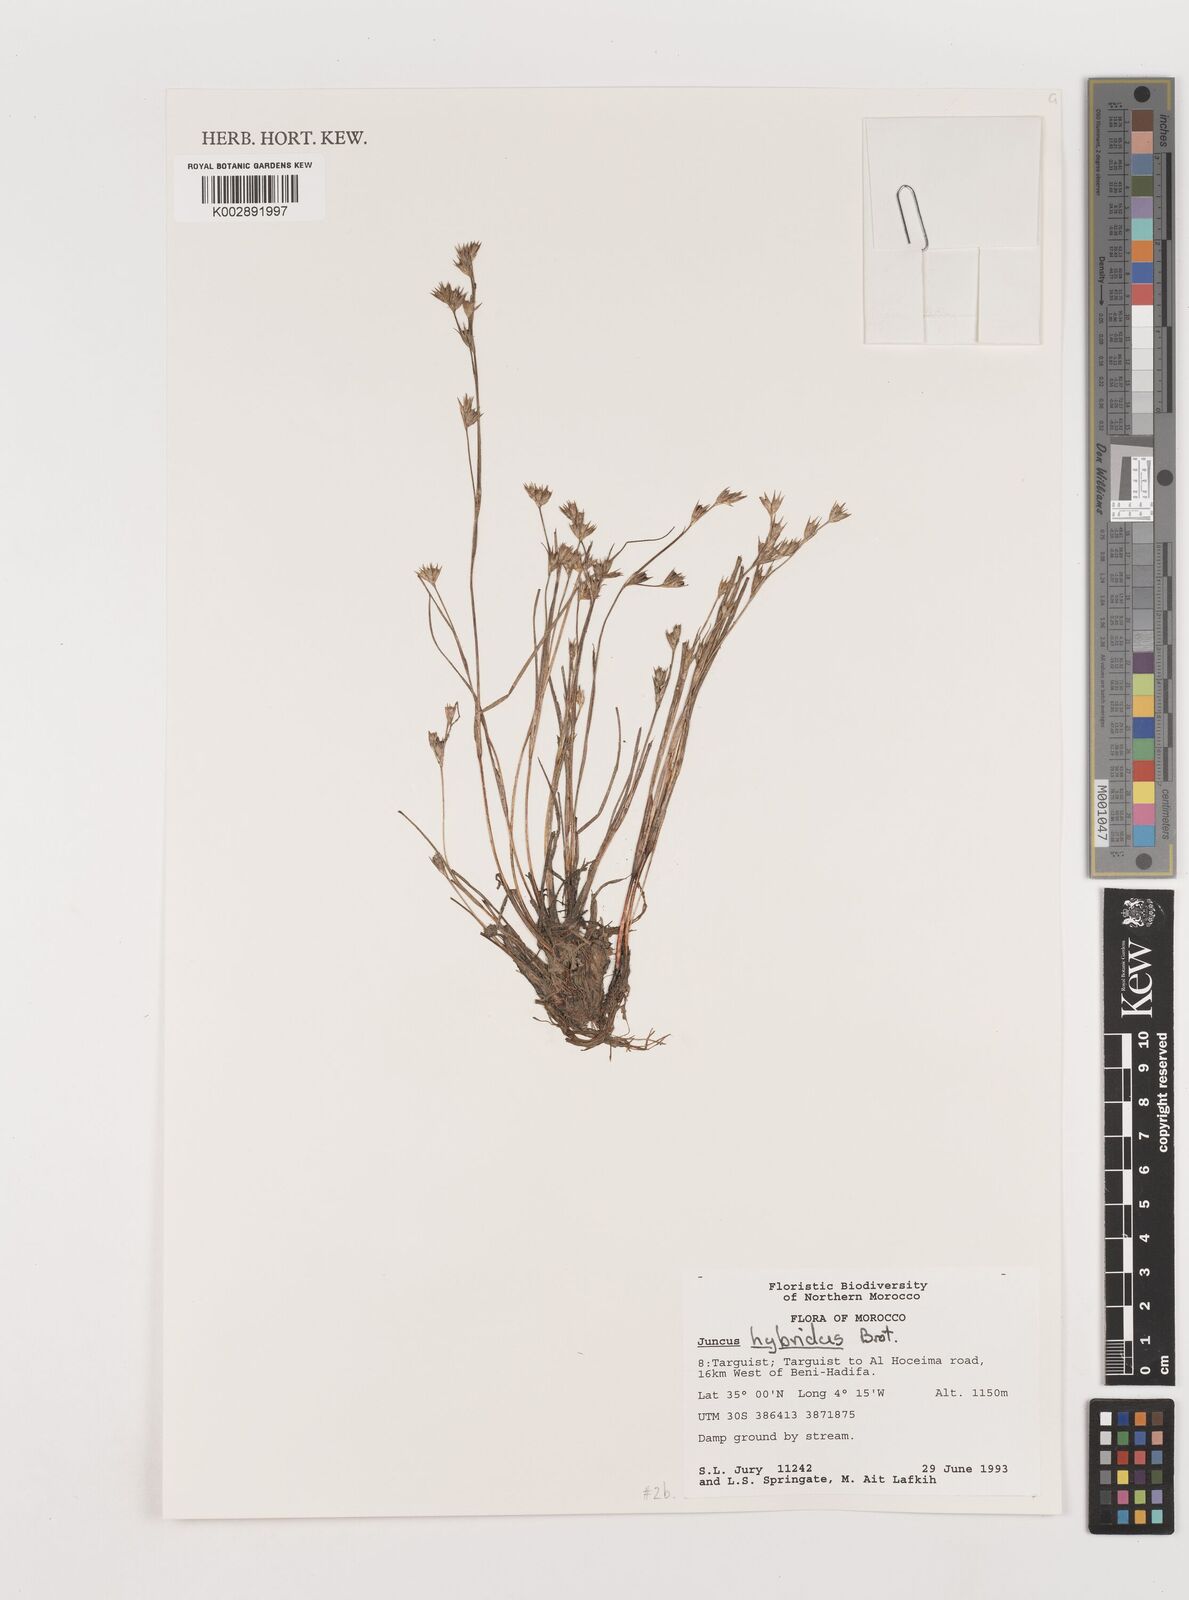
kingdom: Plantae
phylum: Tracheophyta
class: Liliopsida
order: Poales
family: Juncaceae
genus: Juncus
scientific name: Juncus hybridus
